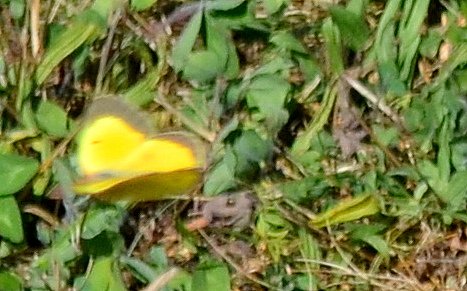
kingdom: Animalia
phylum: Arthropoda
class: Insecta
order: Lepidoptera
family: Pieridae
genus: Colias
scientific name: Colias eurytheme
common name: Orange Sulphur
